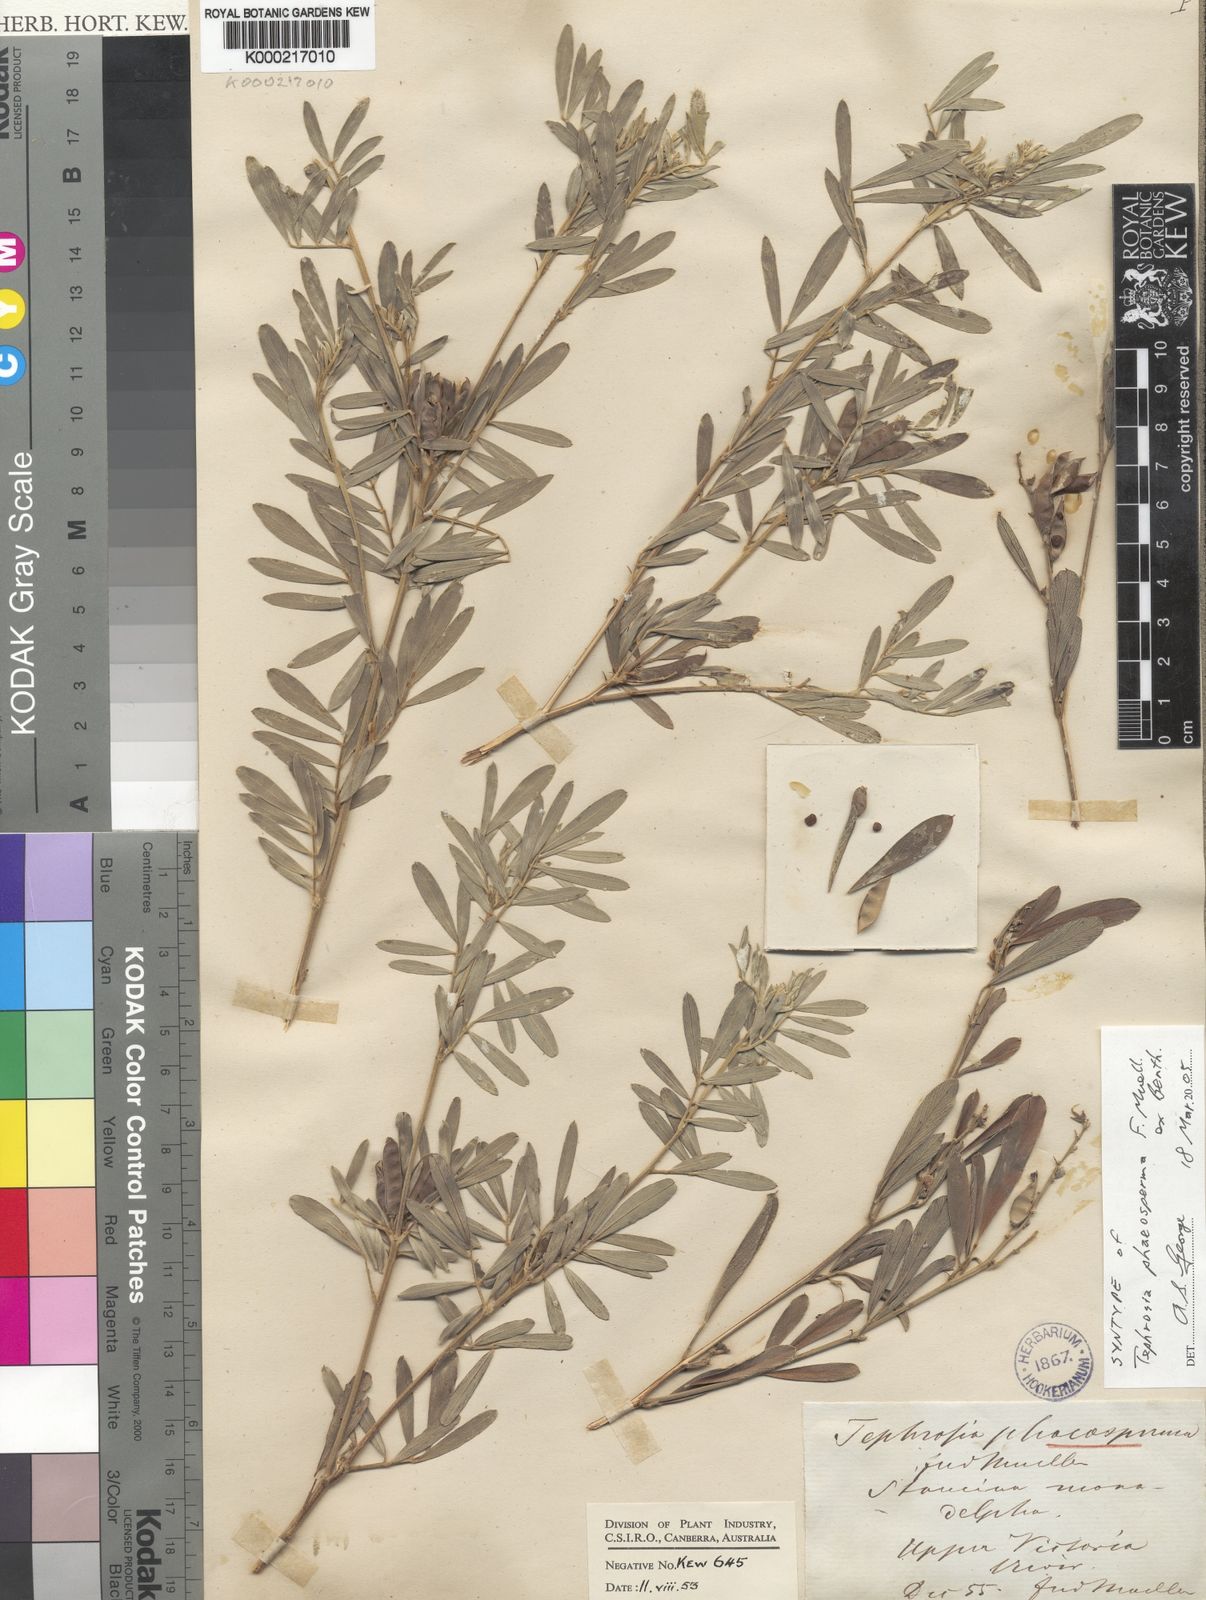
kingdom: Plantae
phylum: Tracheophyta
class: Magnoliopsida
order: Fabales
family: Fabaceae
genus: Tephrosia
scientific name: Tephrosia phaeosperma
